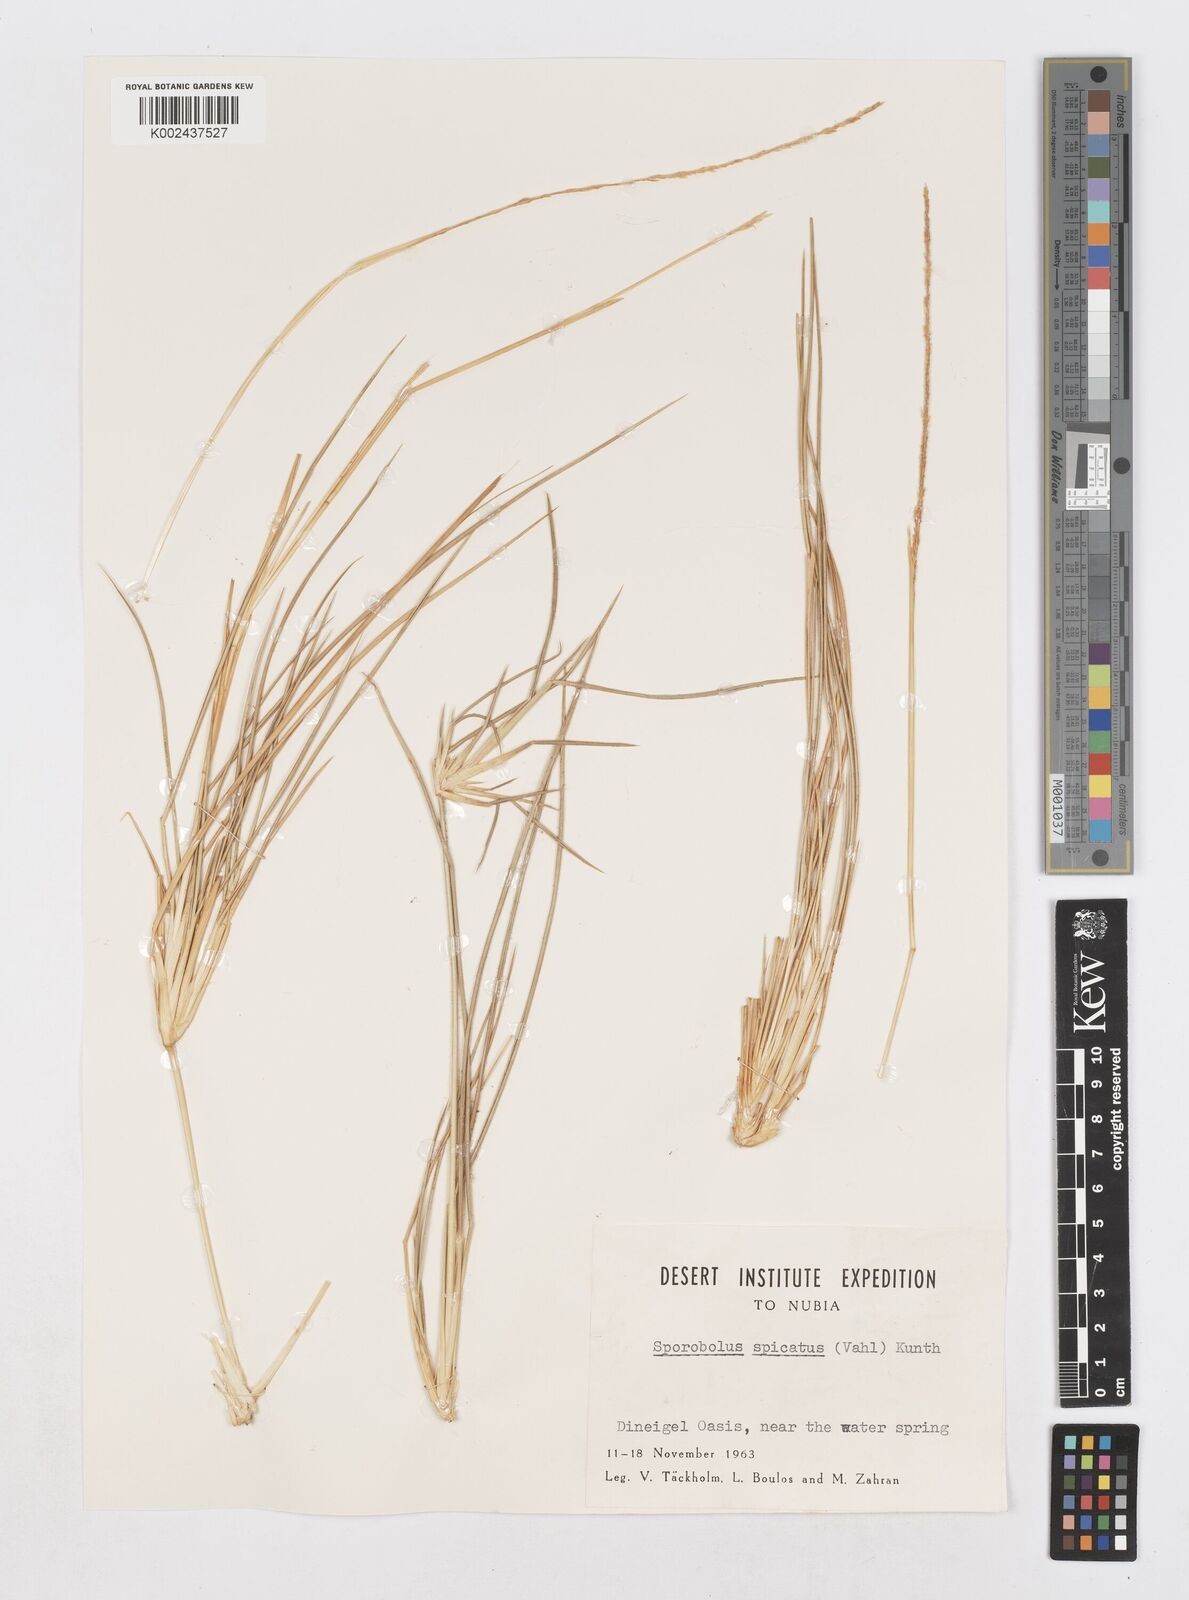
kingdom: Plantae
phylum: Tracheophyta
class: Liliopsida
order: Poales
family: Poaceae
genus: Sporobolus
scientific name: Sporobolus spicatus
